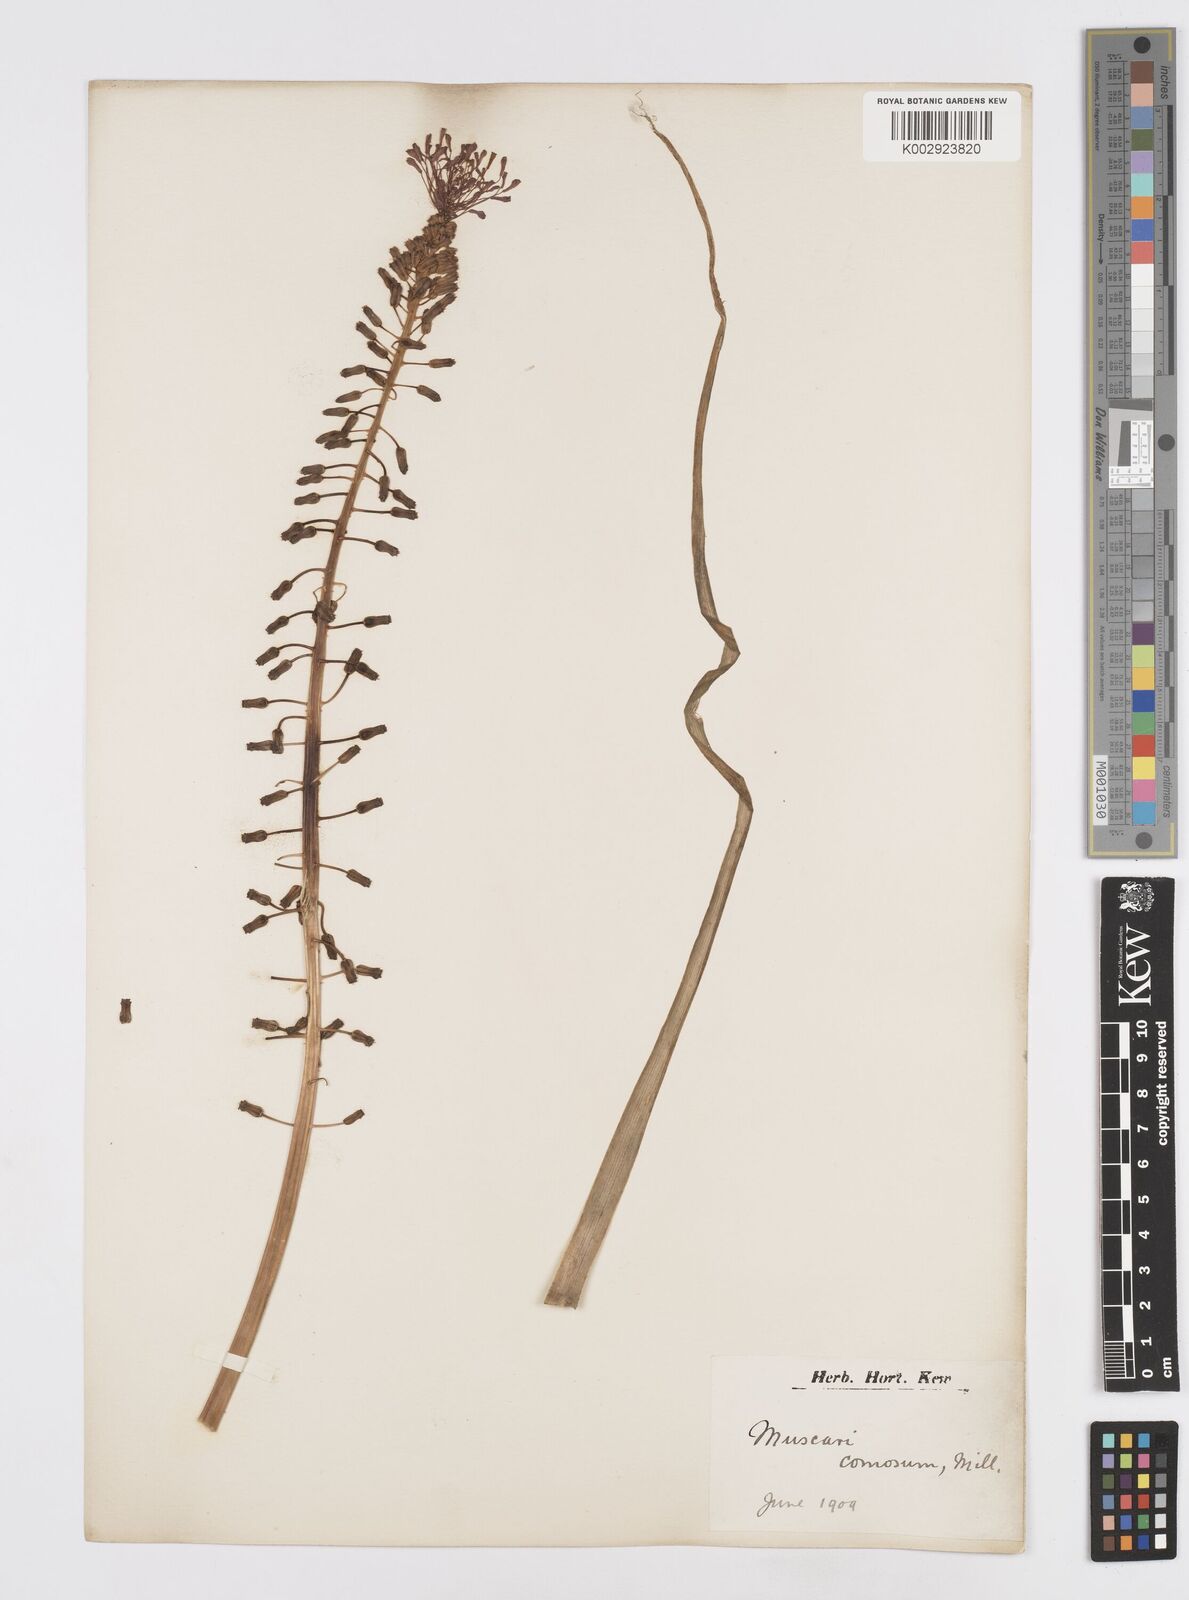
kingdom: Plantae
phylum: Tracheophyta
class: Liliopsida
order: Asparagales
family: Asparagaceae
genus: Muscari
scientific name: Muscari comosum
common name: Tassel hyacinth
